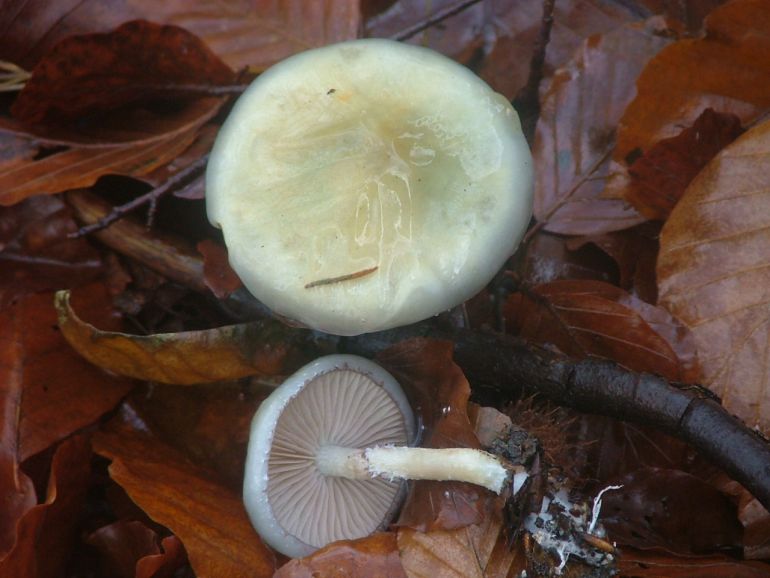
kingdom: Fungi
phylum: Basidiomycota
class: Agaricomycetes
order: Agaricales
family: Strophariaceae
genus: Stropharia
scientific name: Stropharia cyanea
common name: blågrøn bredblad
